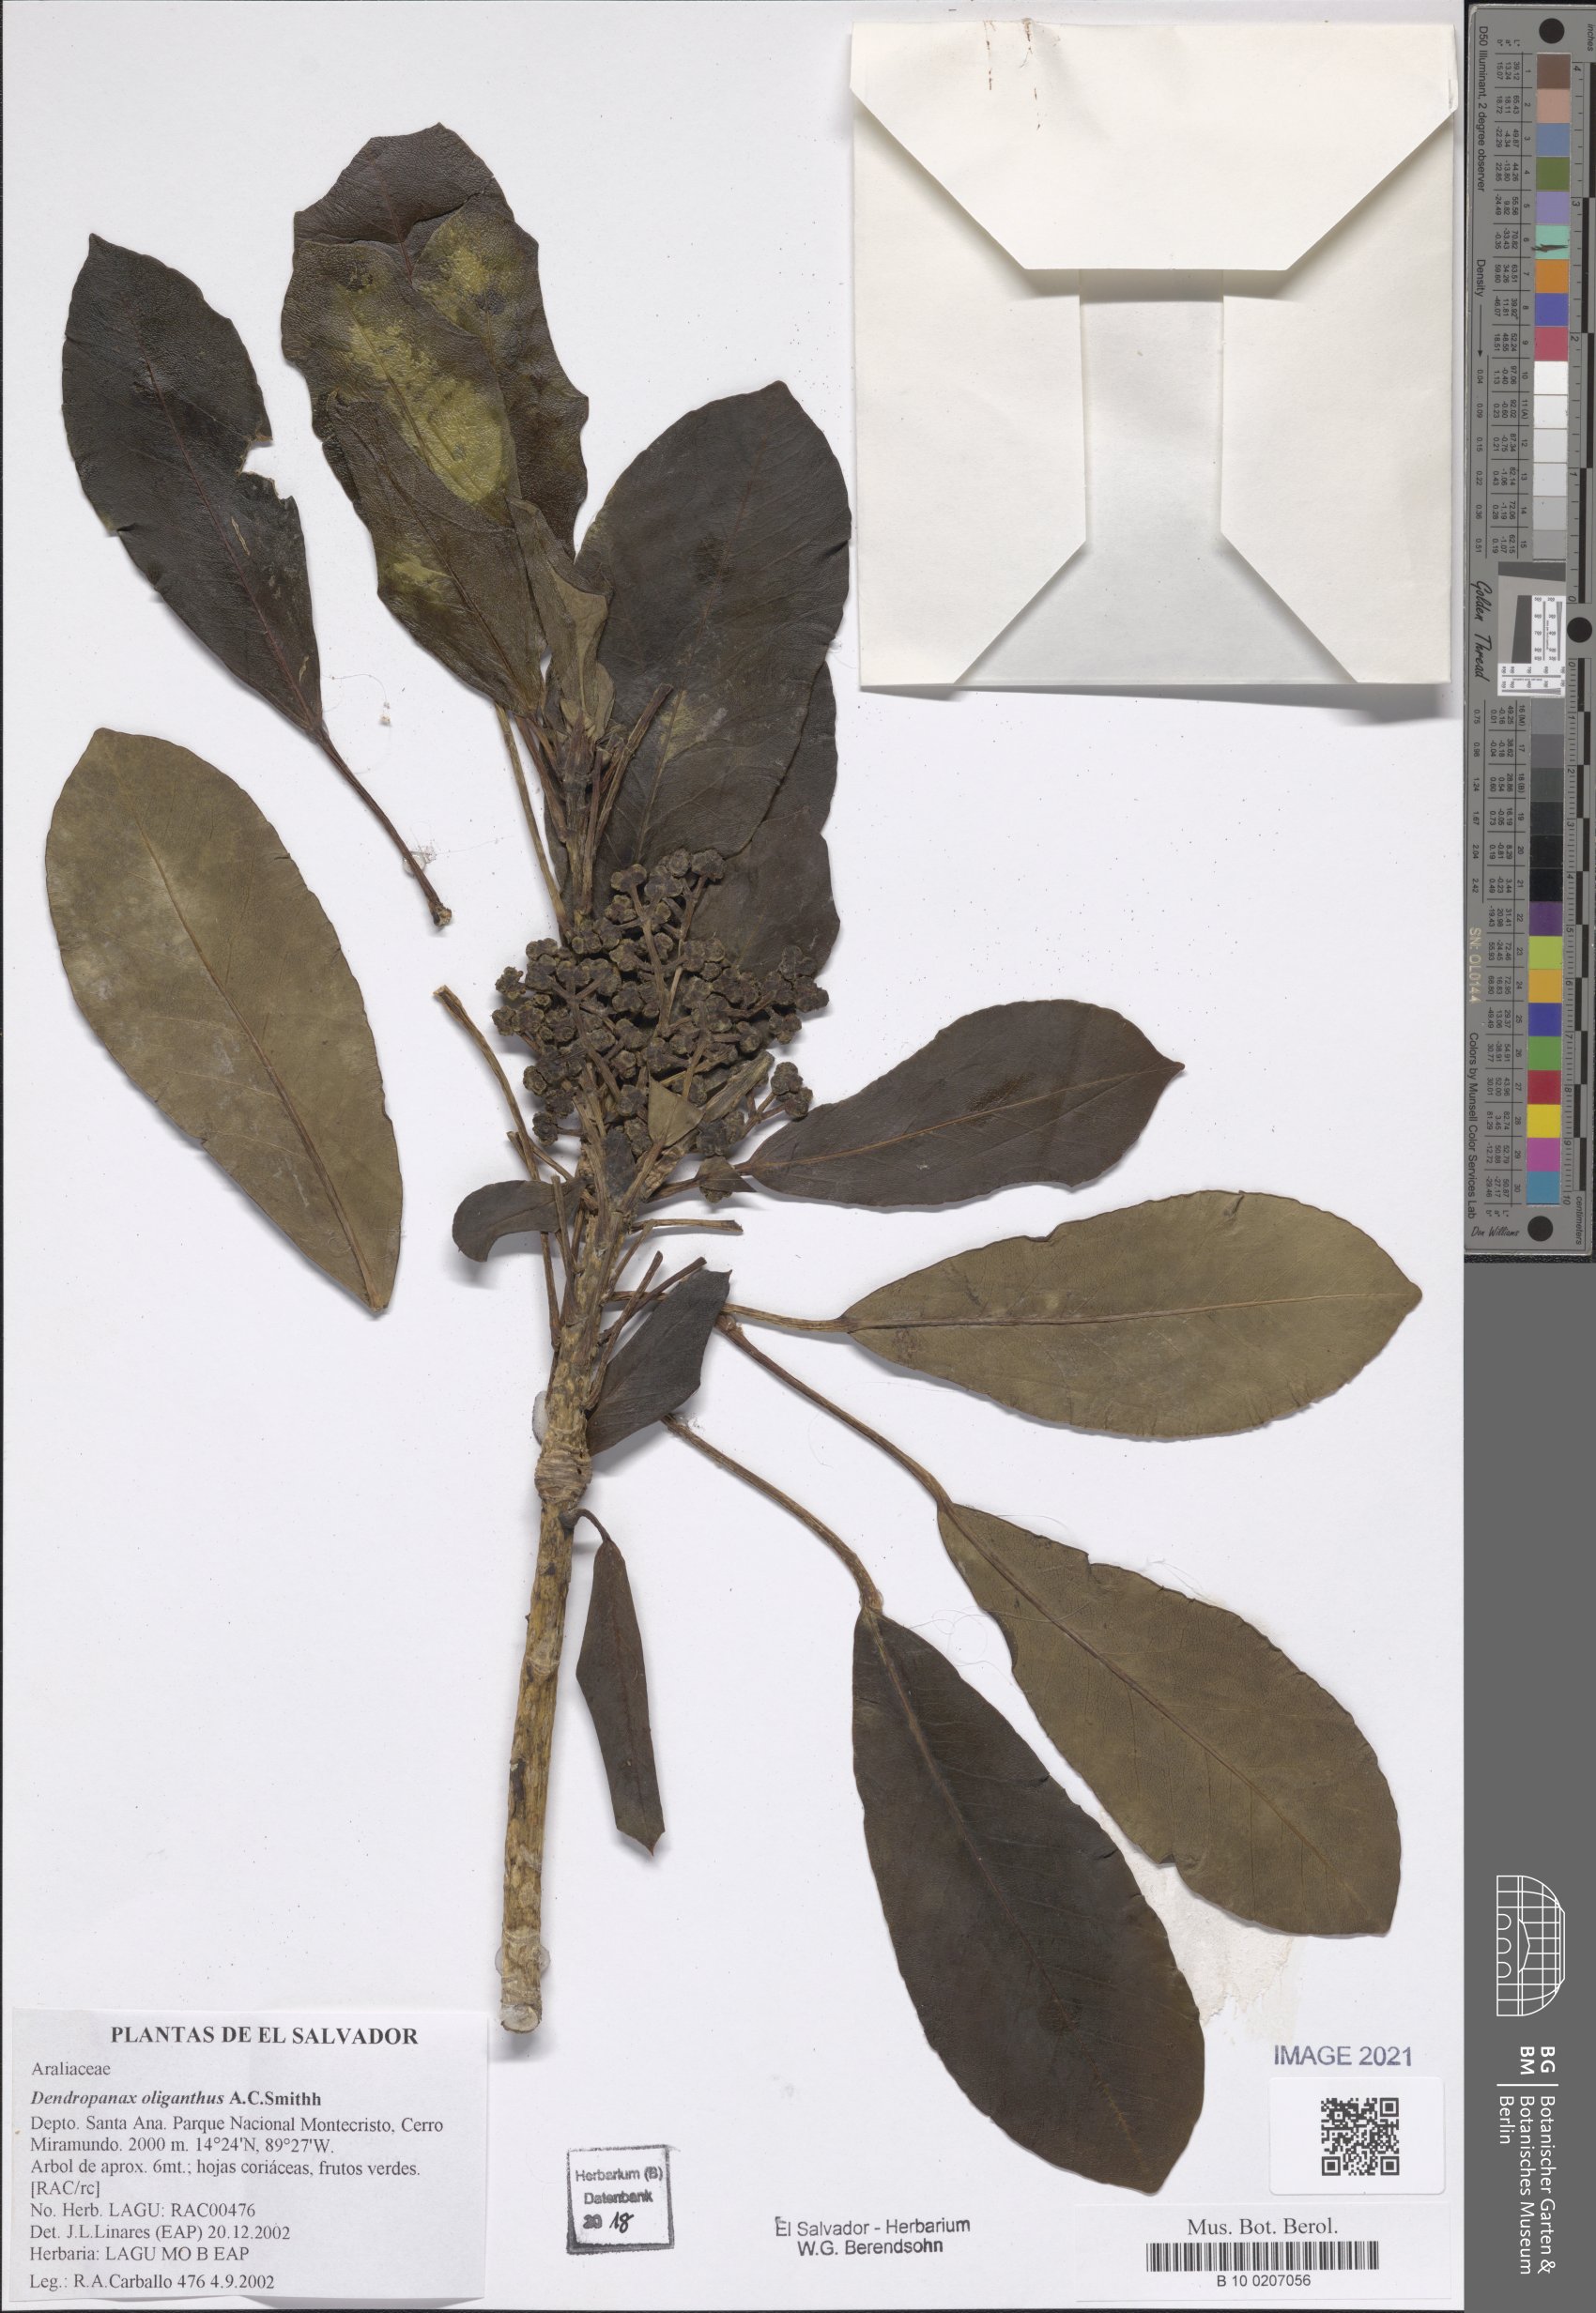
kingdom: Plantae
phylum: Tracheophyta
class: Magnoliopsida
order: Apiales
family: Araliaceae
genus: Dendropanax
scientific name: Dendropanax oliganthus
